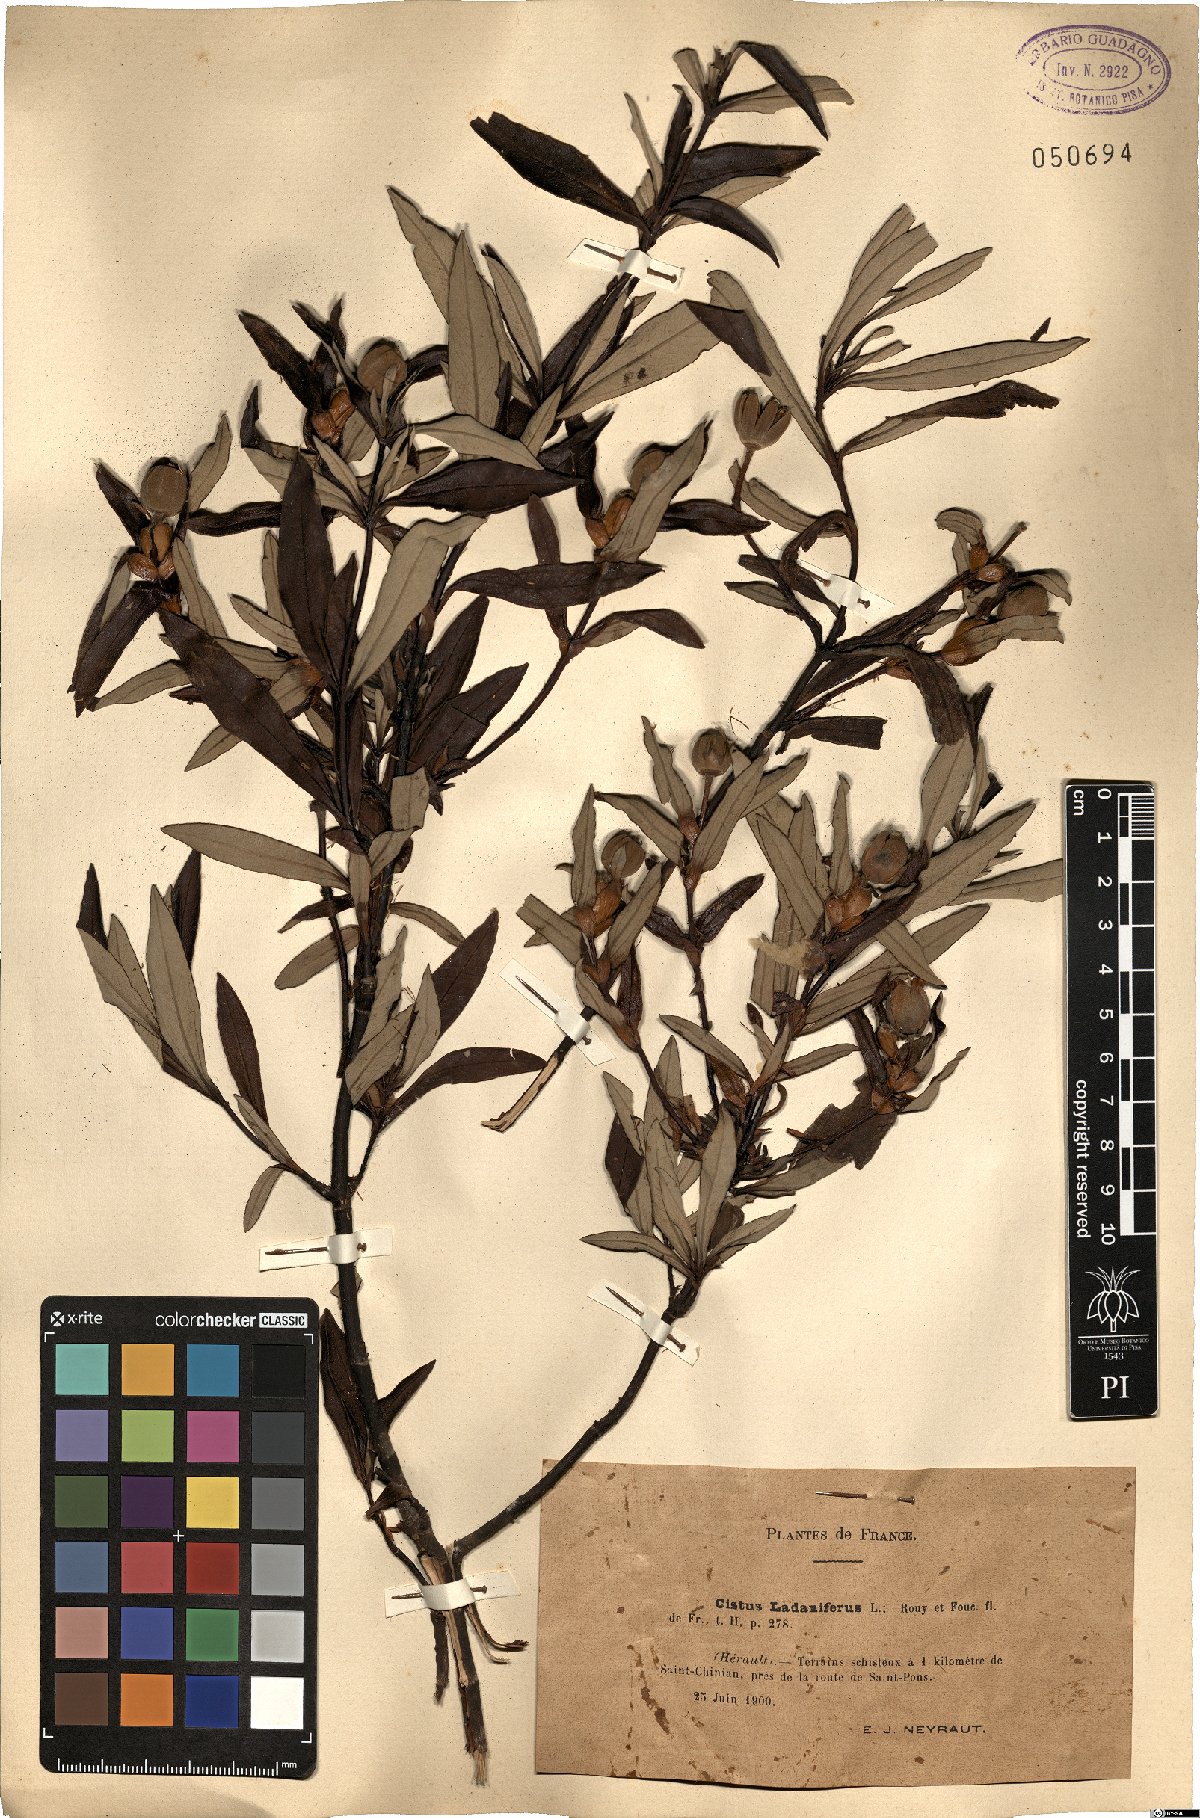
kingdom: Plantae
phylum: Tracheophyta
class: Magnoliopsida
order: Malvales
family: Cistaceae
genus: Cistus
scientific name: Cistus ladanifer
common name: Common gum cistus
